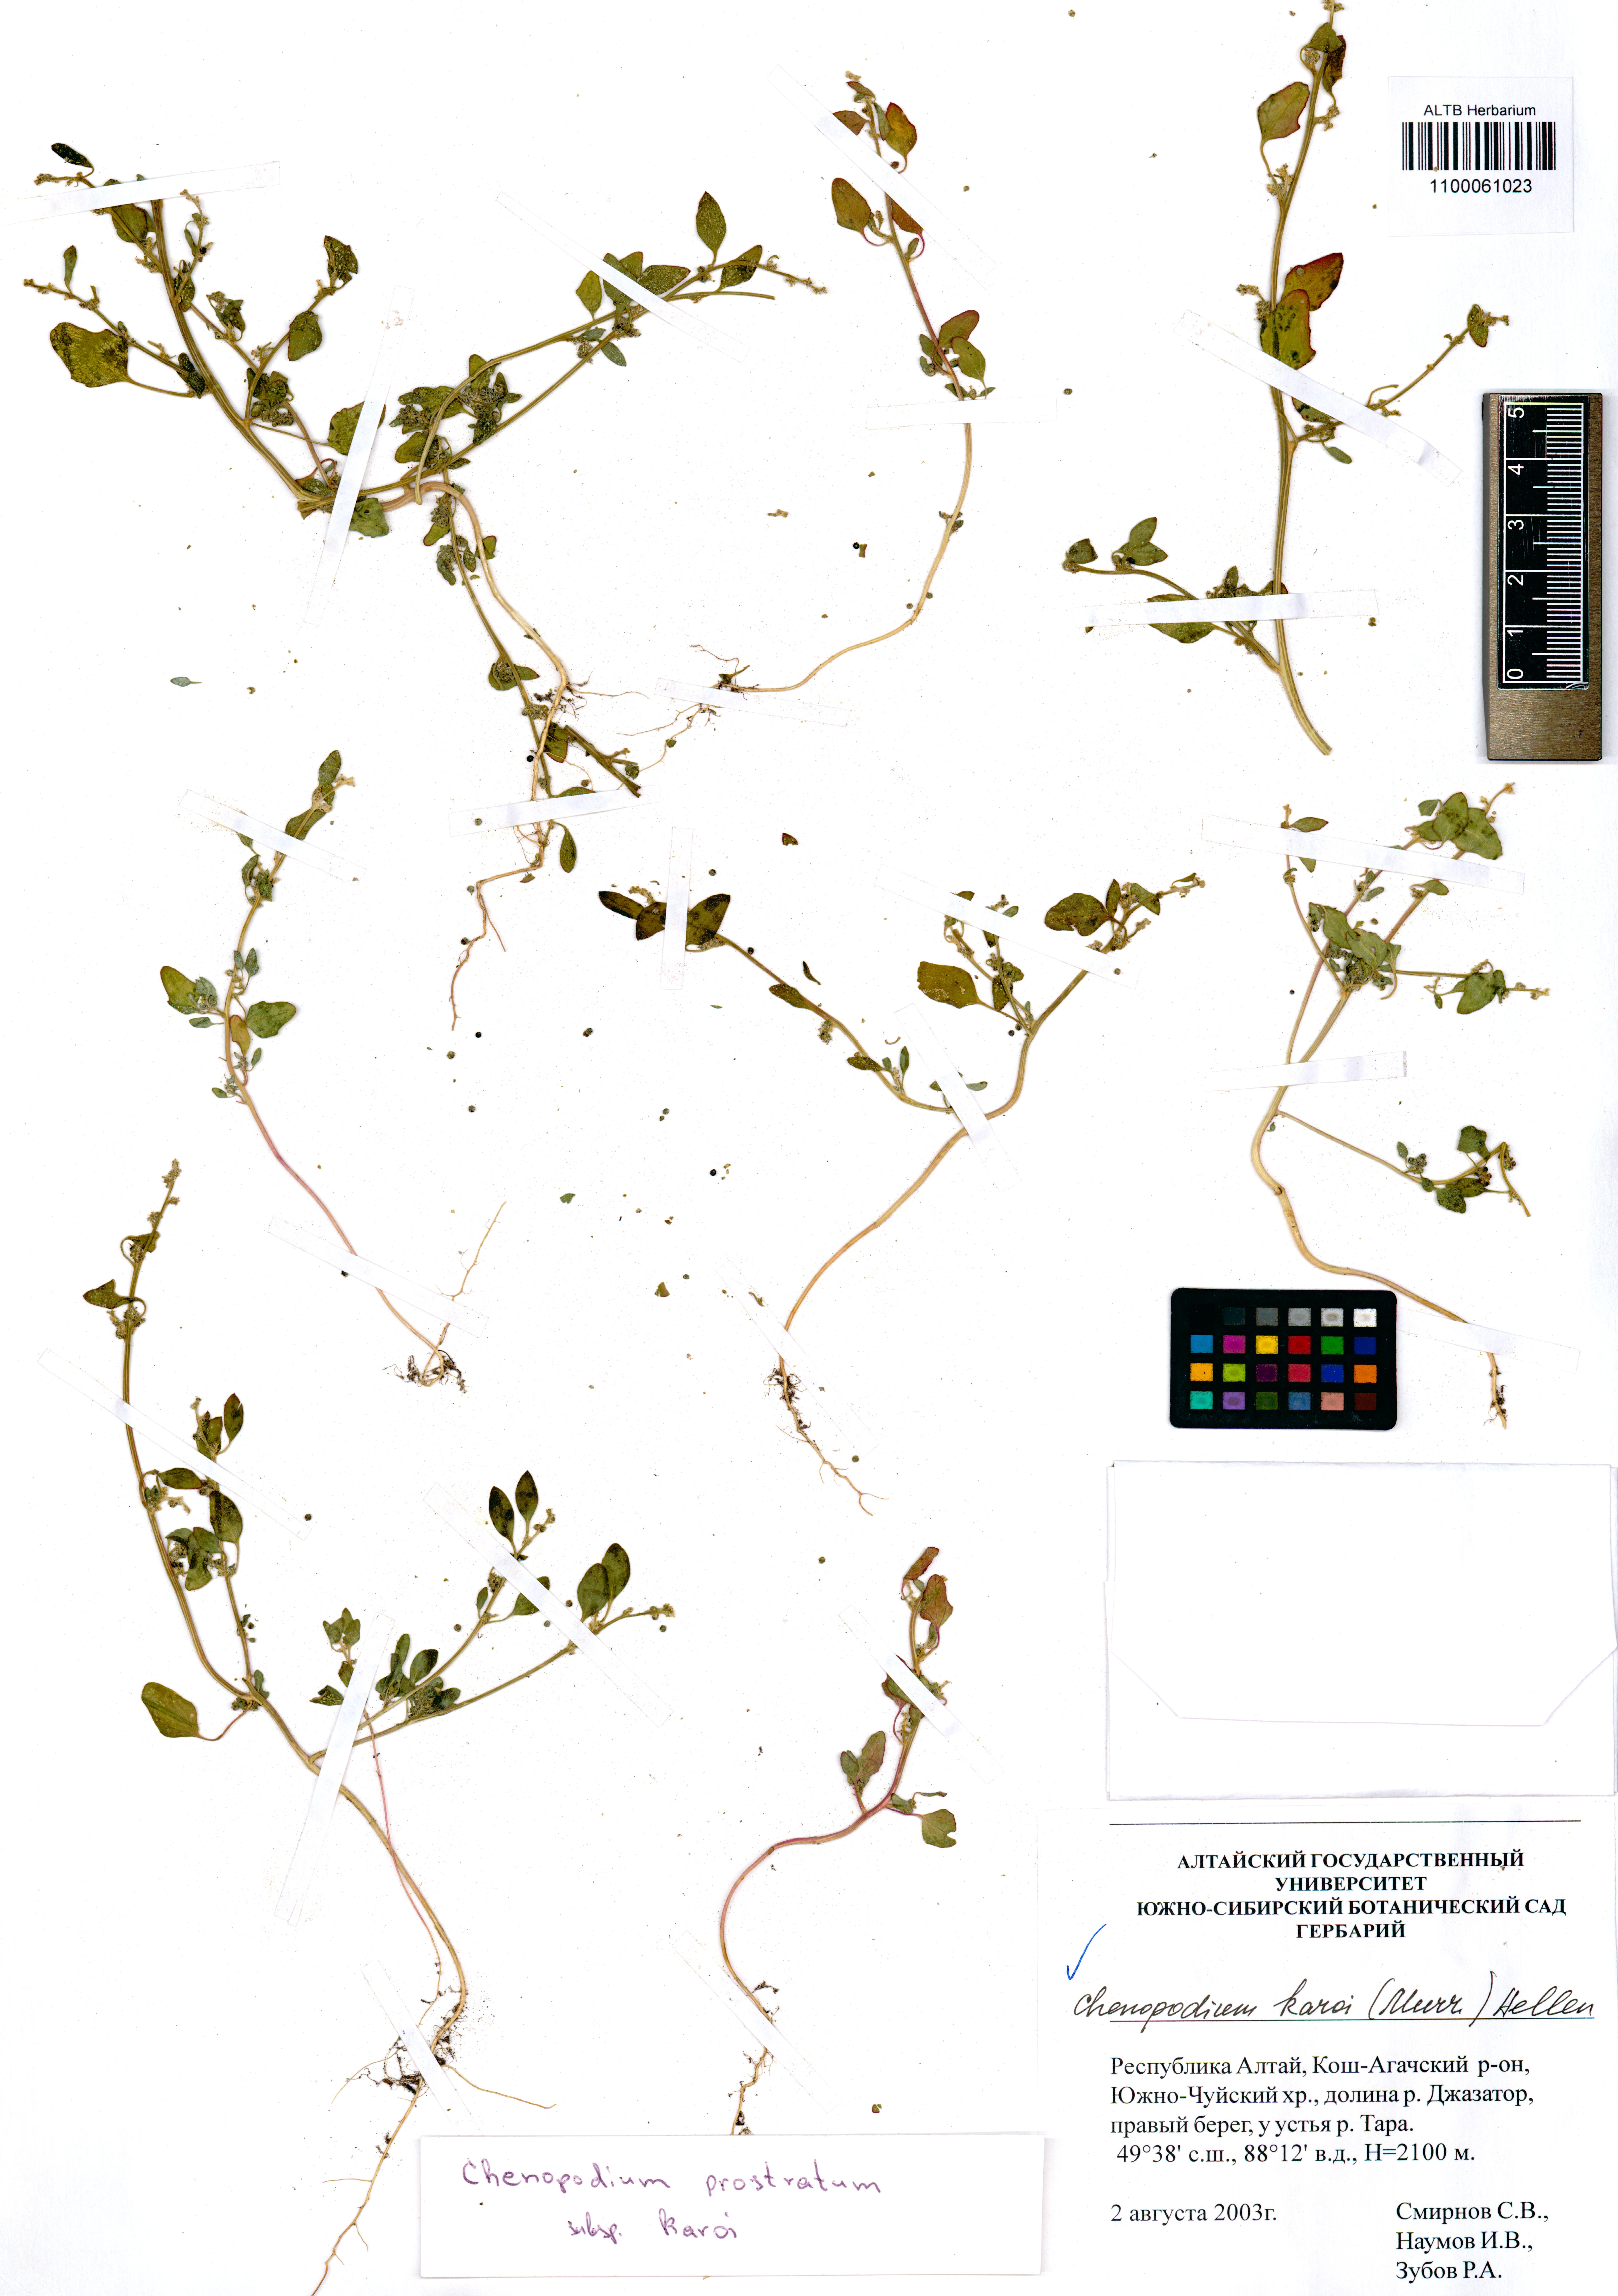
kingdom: Plantae
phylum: Tracheophyta
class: Magnoliopsida
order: Caryophyllales
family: Amaranthaceae
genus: Chenopodium
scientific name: Chenopodium karoi
